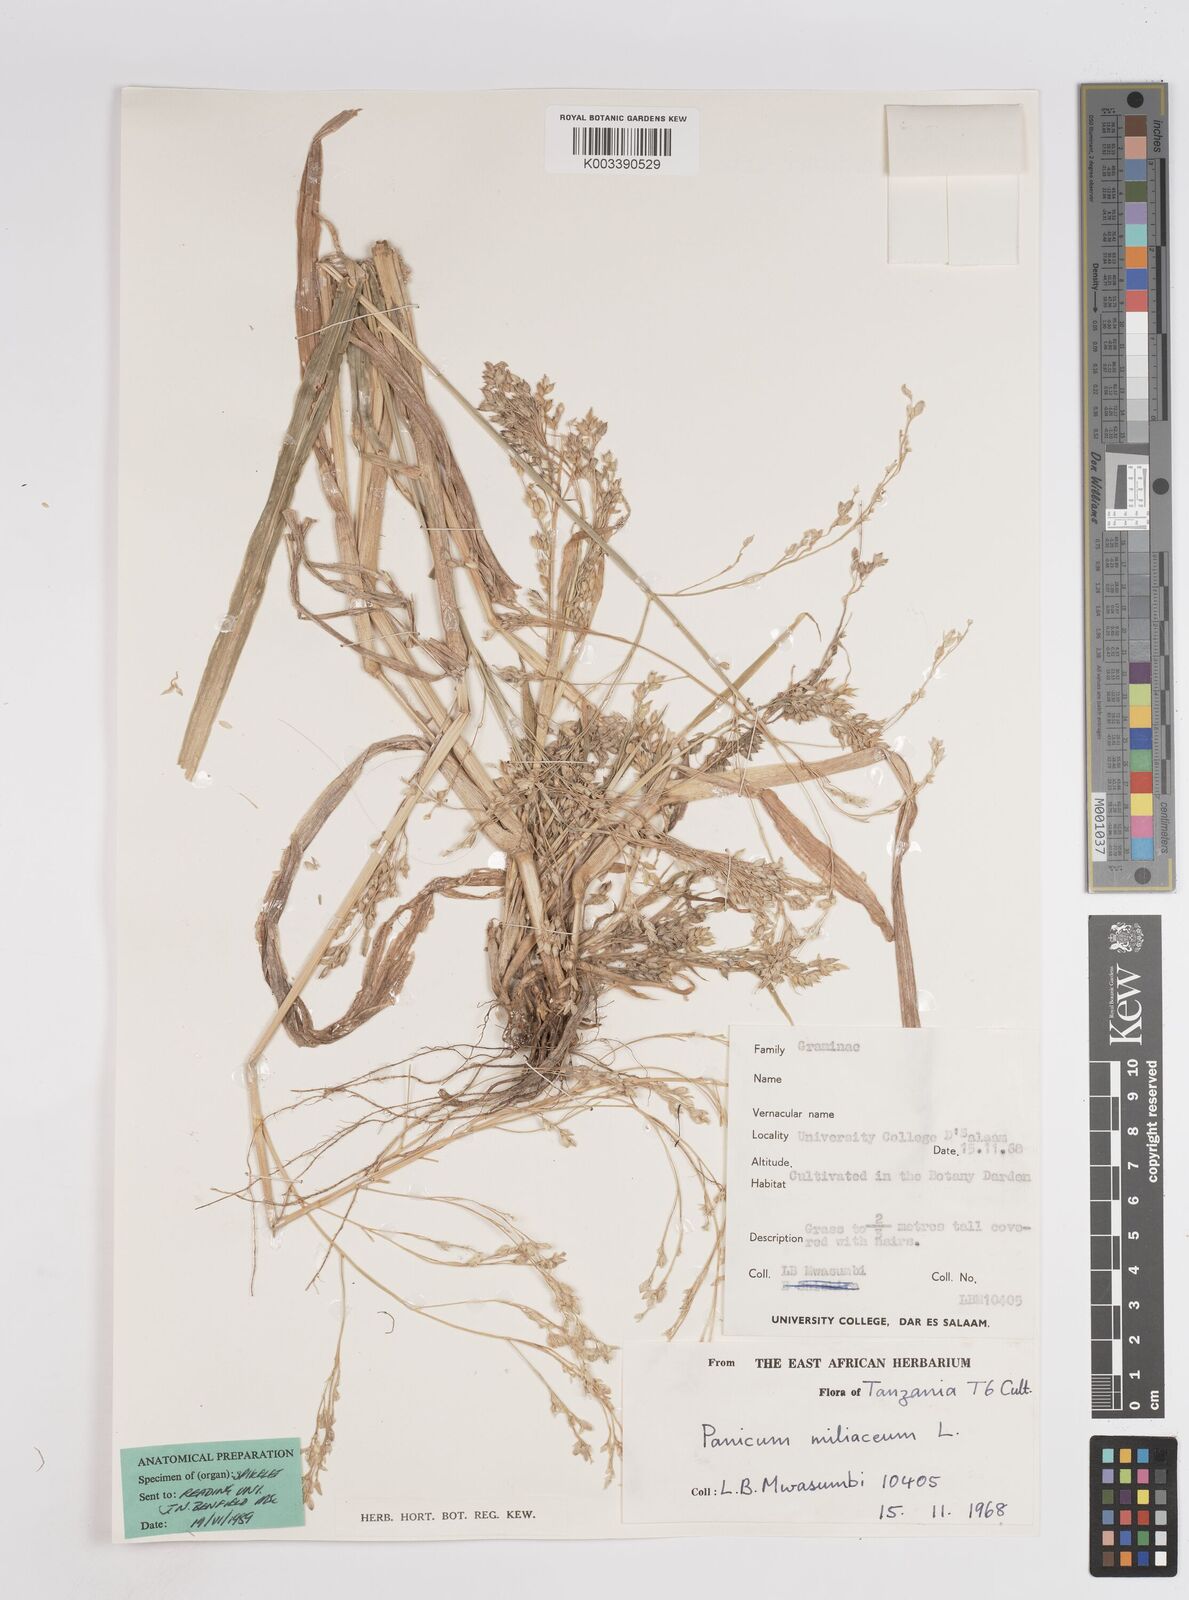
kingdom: Plantae
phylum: Tracheophyta
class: Liliopsida
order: Poales
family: Poaceae
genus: Panicum
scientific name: Panicum miliaceum
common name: Common millet
